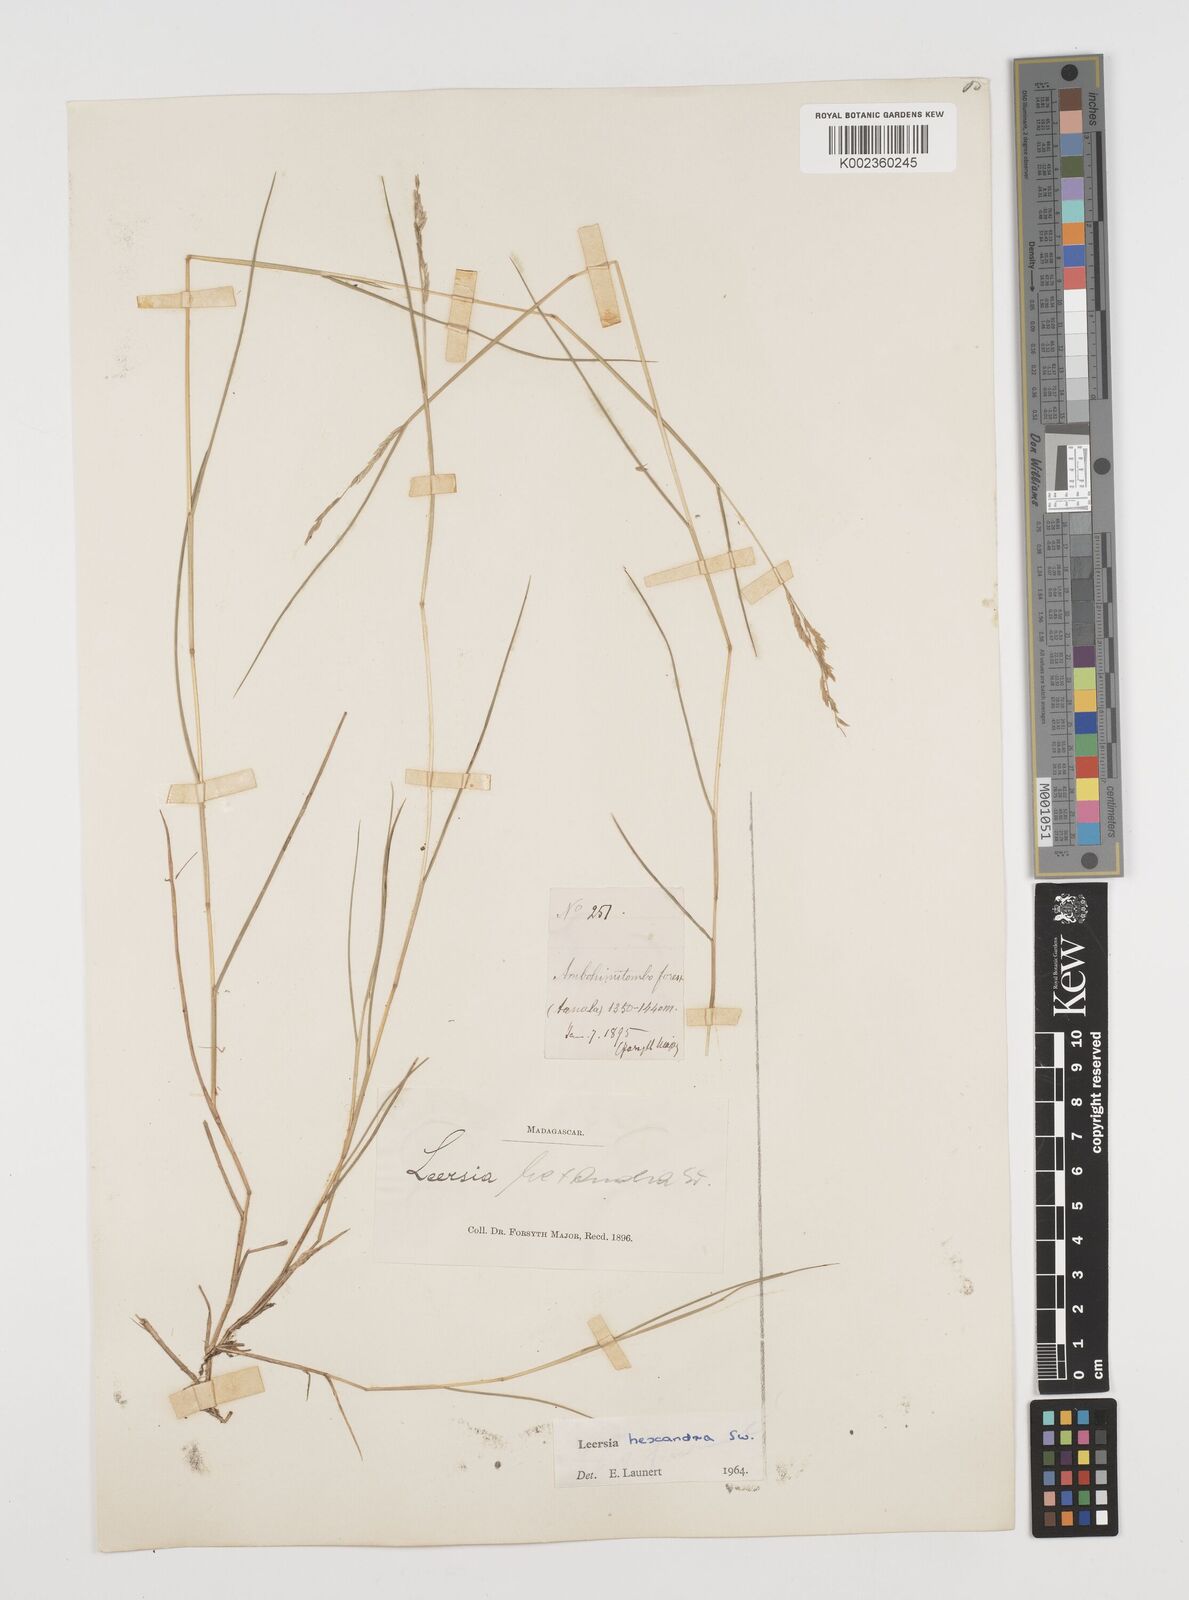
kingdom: Plantae
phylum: Tracheophyta
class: Liliopsida
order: Poales
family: Poaceae
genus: Leersia
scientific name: Leersia hexandra
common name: Southern cut grass
